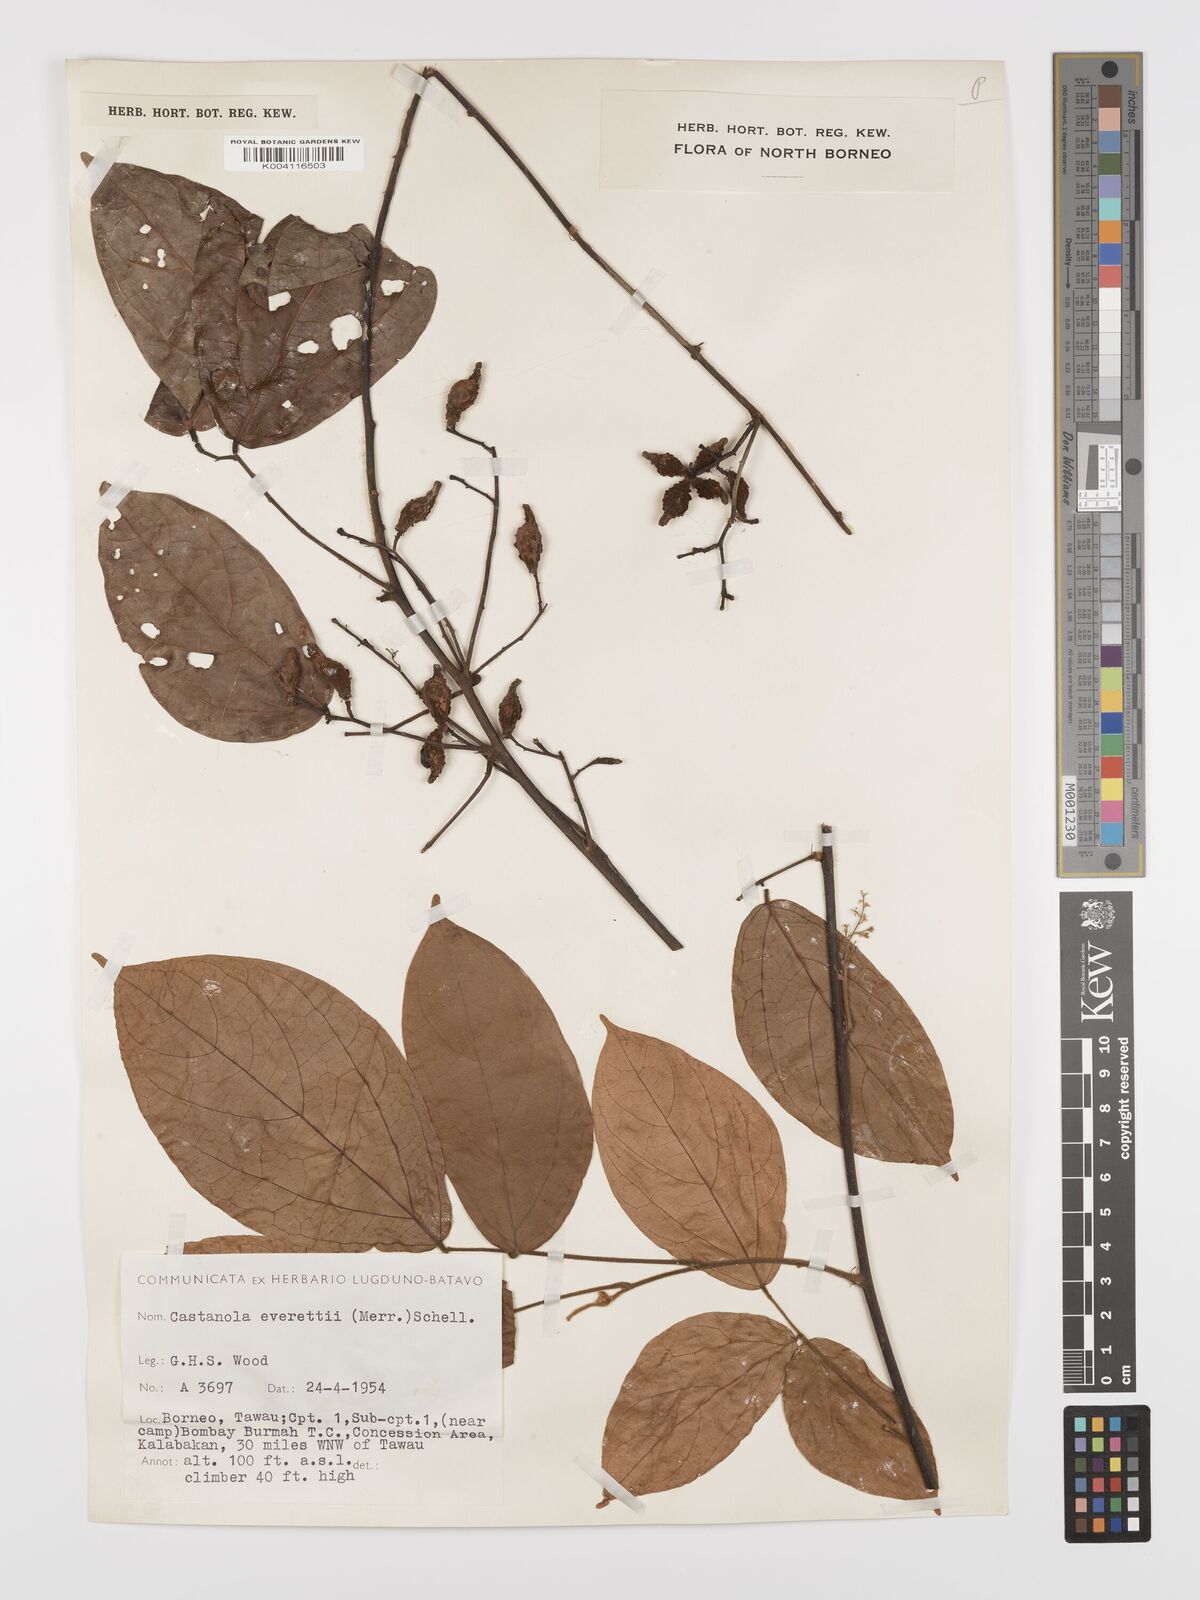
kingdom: Plantae
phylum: Tracheophyta
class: Magnoliopsida
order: Oxalidales
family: Connaraceae
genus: Agelaea
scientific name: Agelaea borneensis
